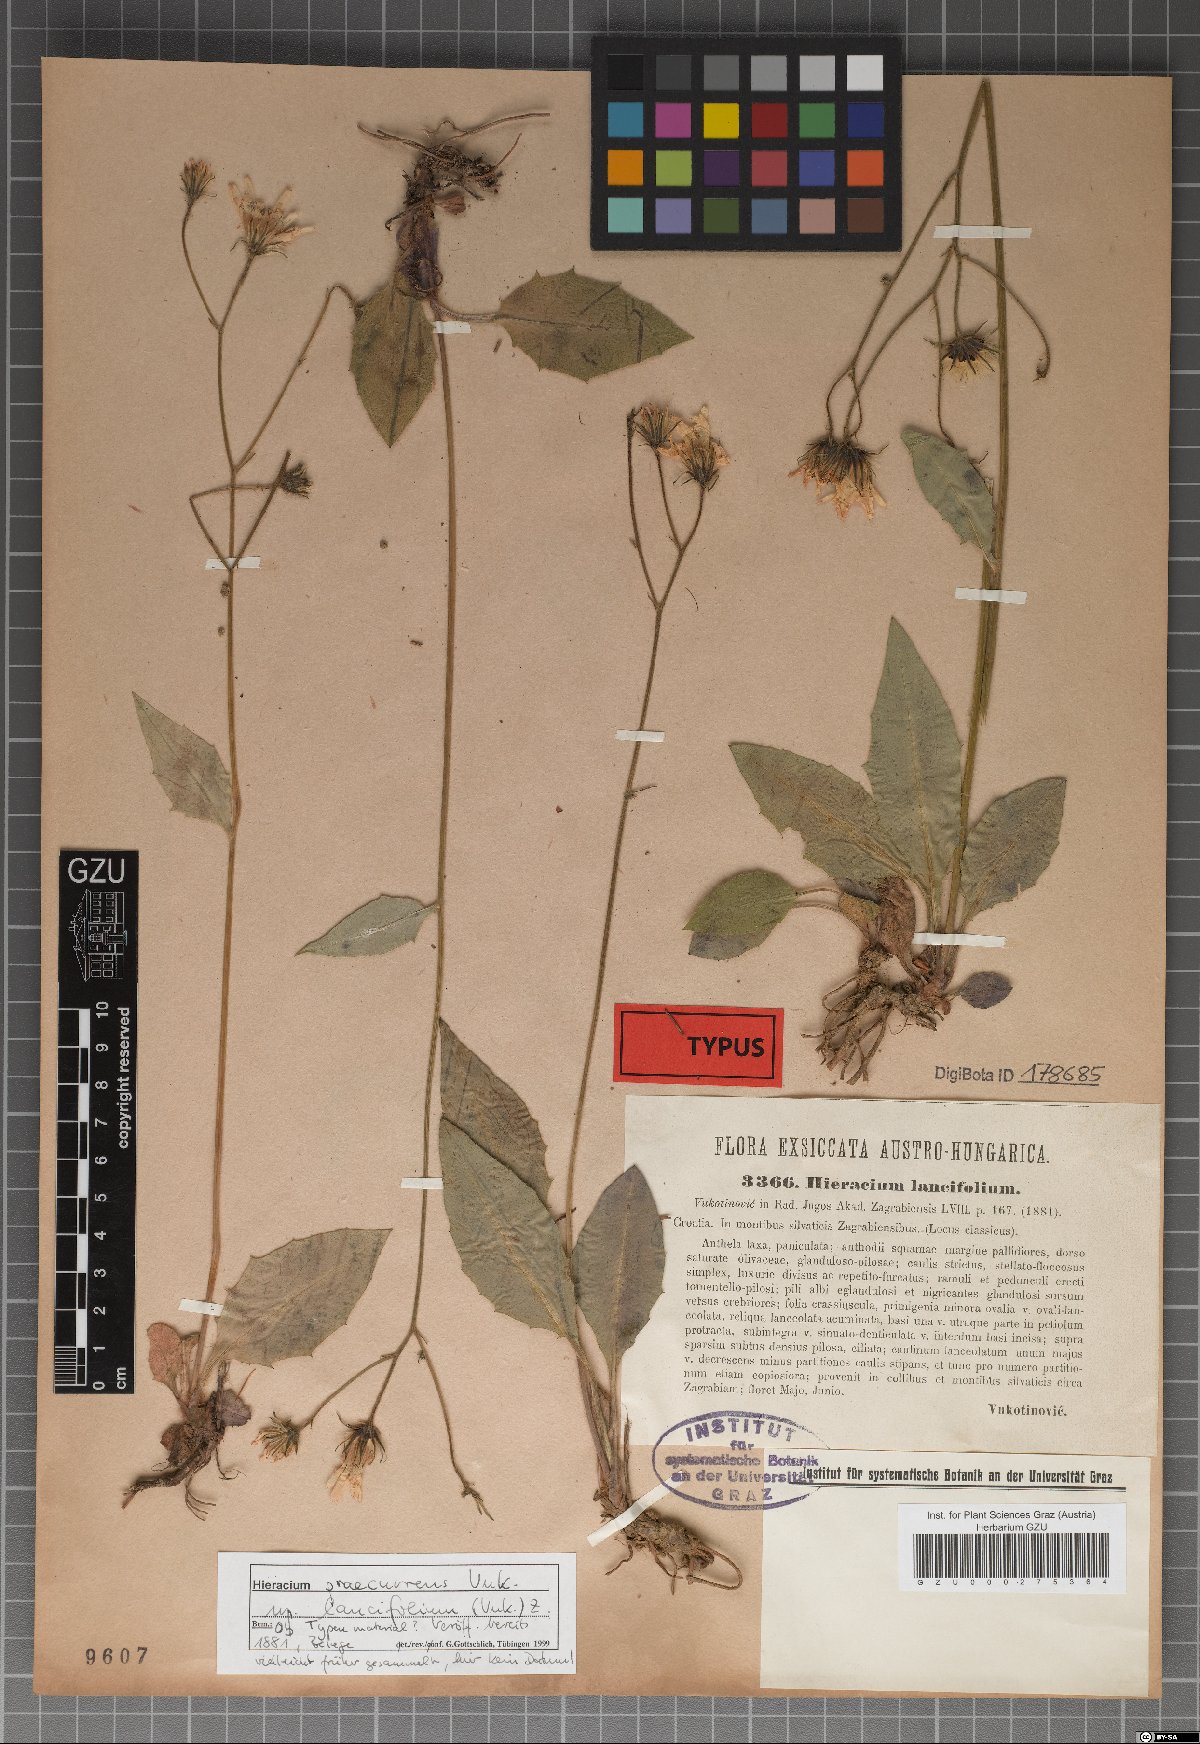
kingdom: Plantae
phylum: Tracheophyta
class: Magnoliopsida
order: Asterales
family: Asteraceae
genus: Hieracium
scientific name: Hieracium rotundatum
